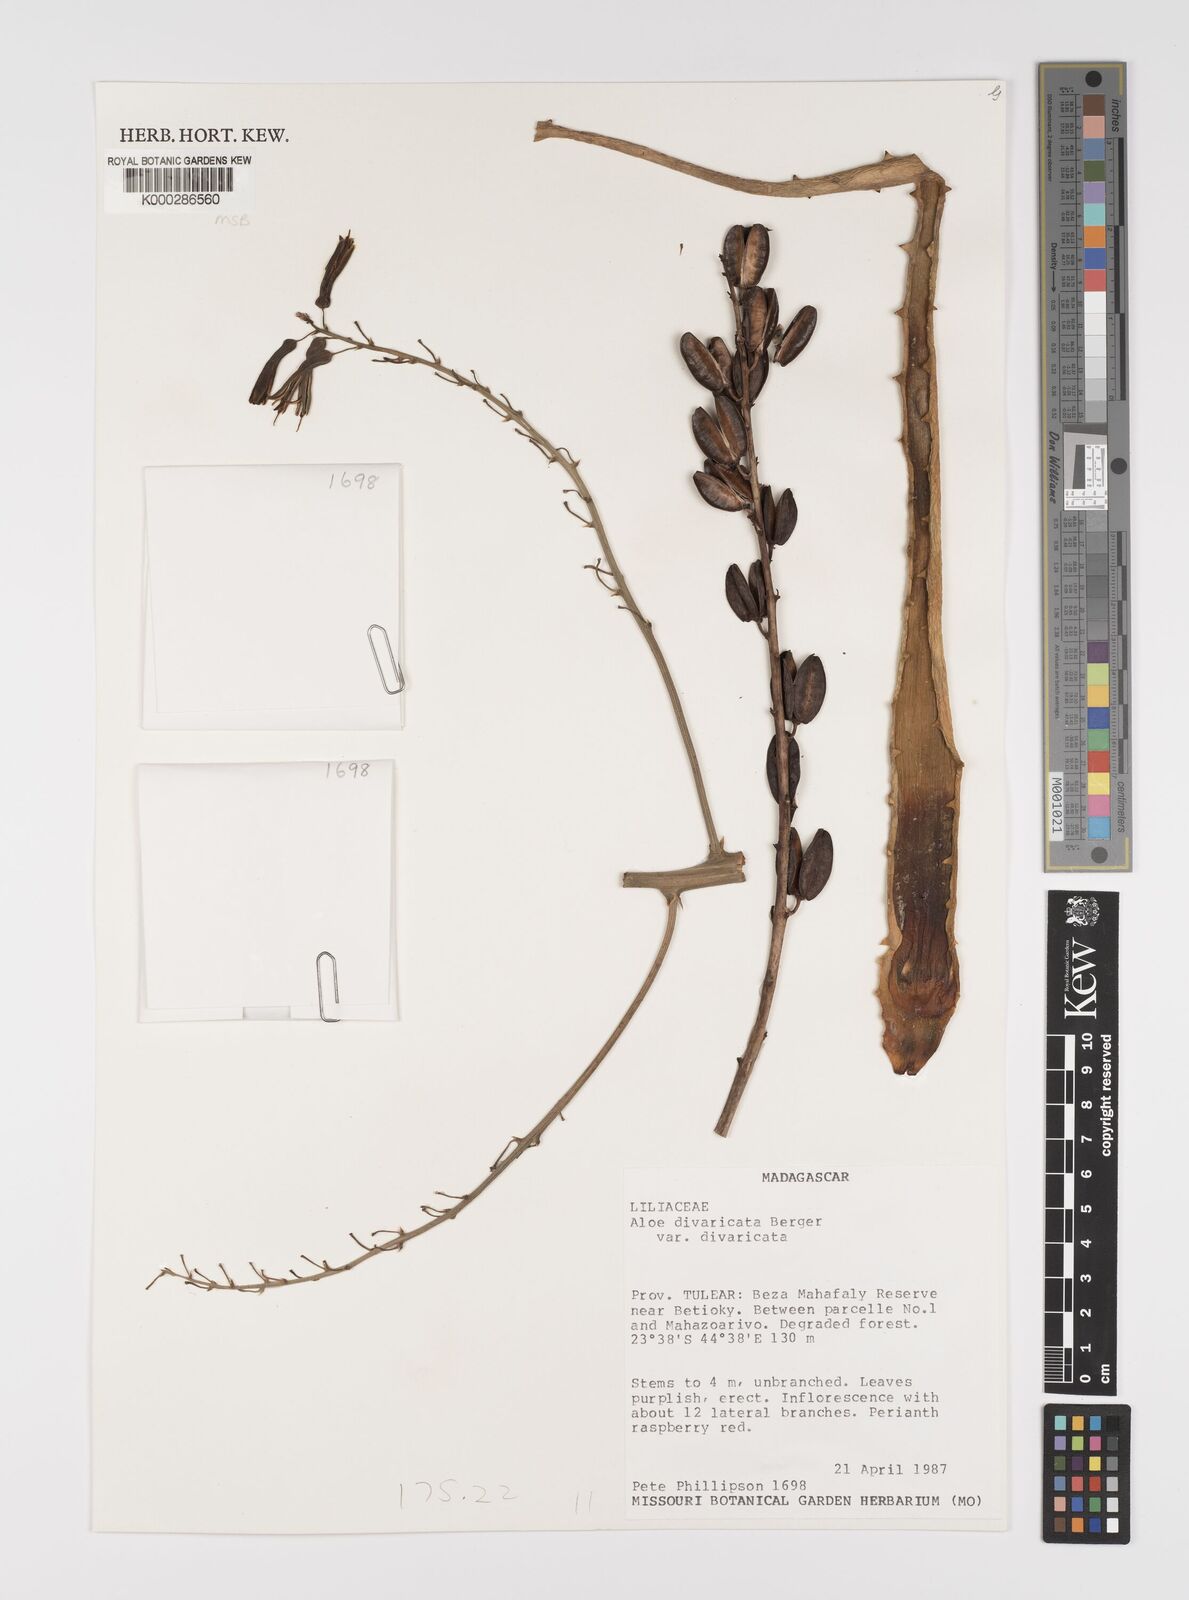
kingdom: Plantae
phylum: Tracheophyta
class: Liliopsida
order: Asparagales
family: Asphodelaceae
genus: Aloe
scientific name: Aloe divaricata
